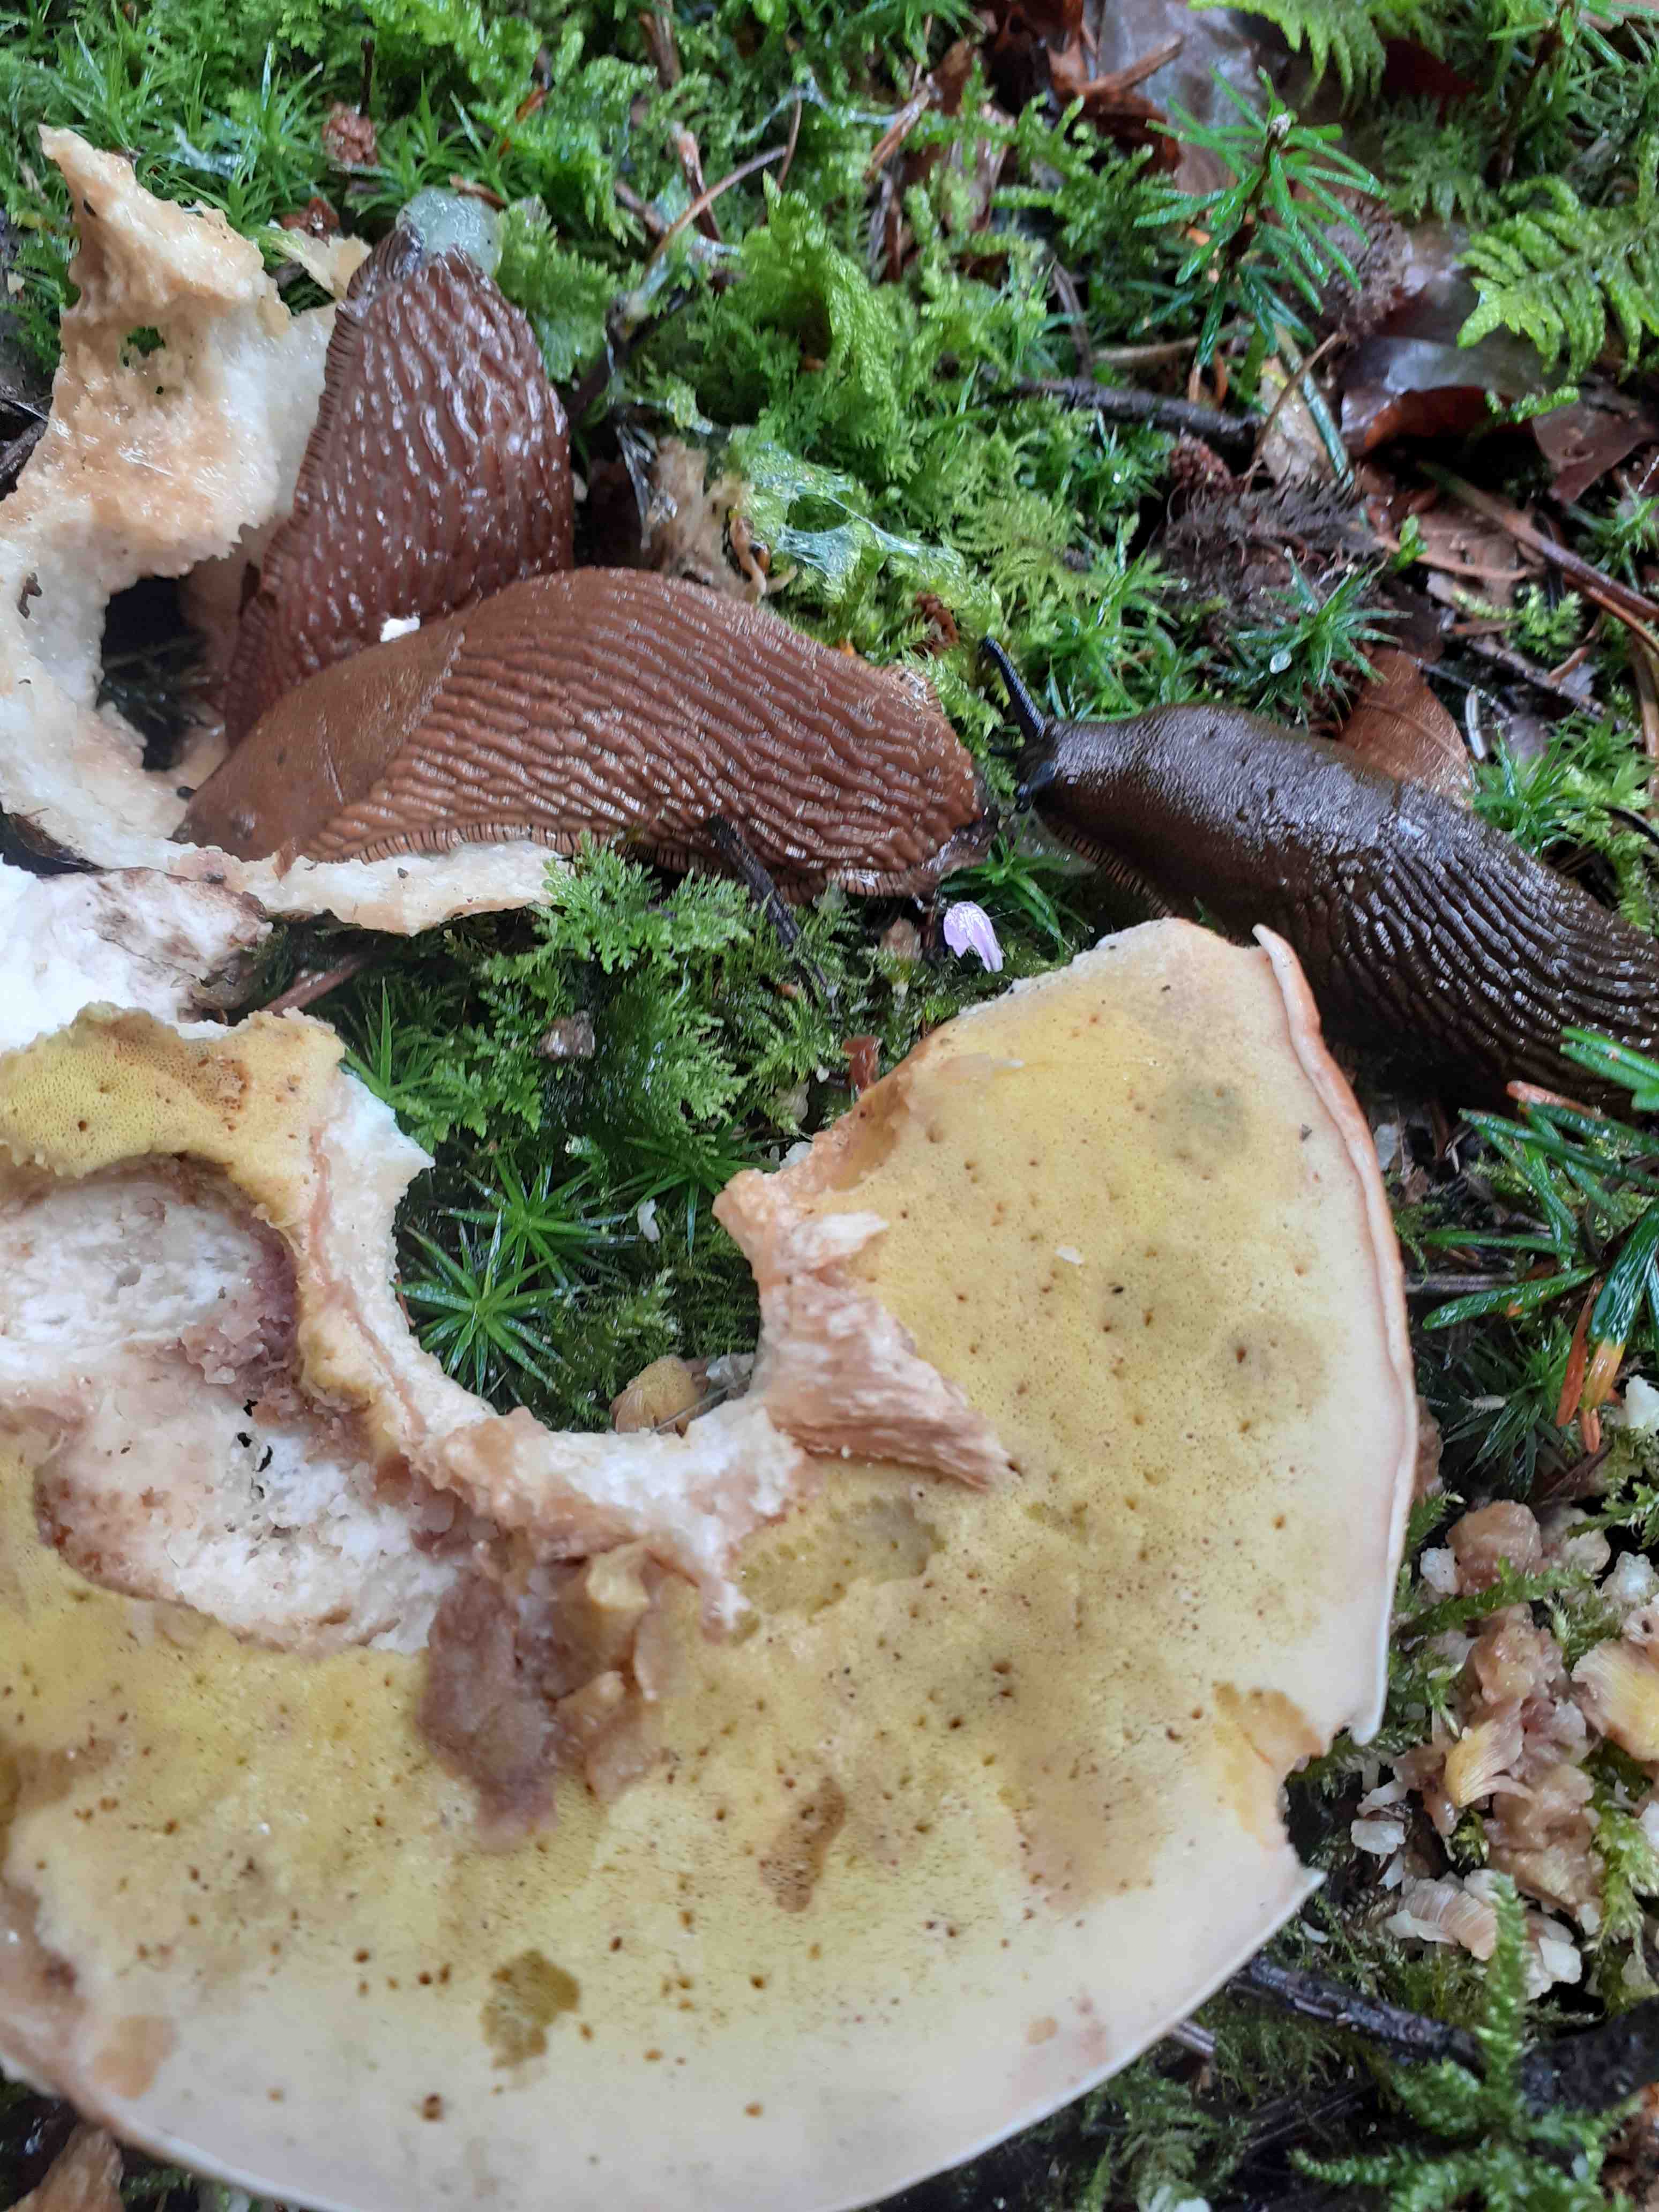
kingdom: Fungi
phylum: Basidiomycota
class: Agaricomycetes
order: Boletales
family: Boletaceae
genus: Boletus
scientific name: Boletus edulis
